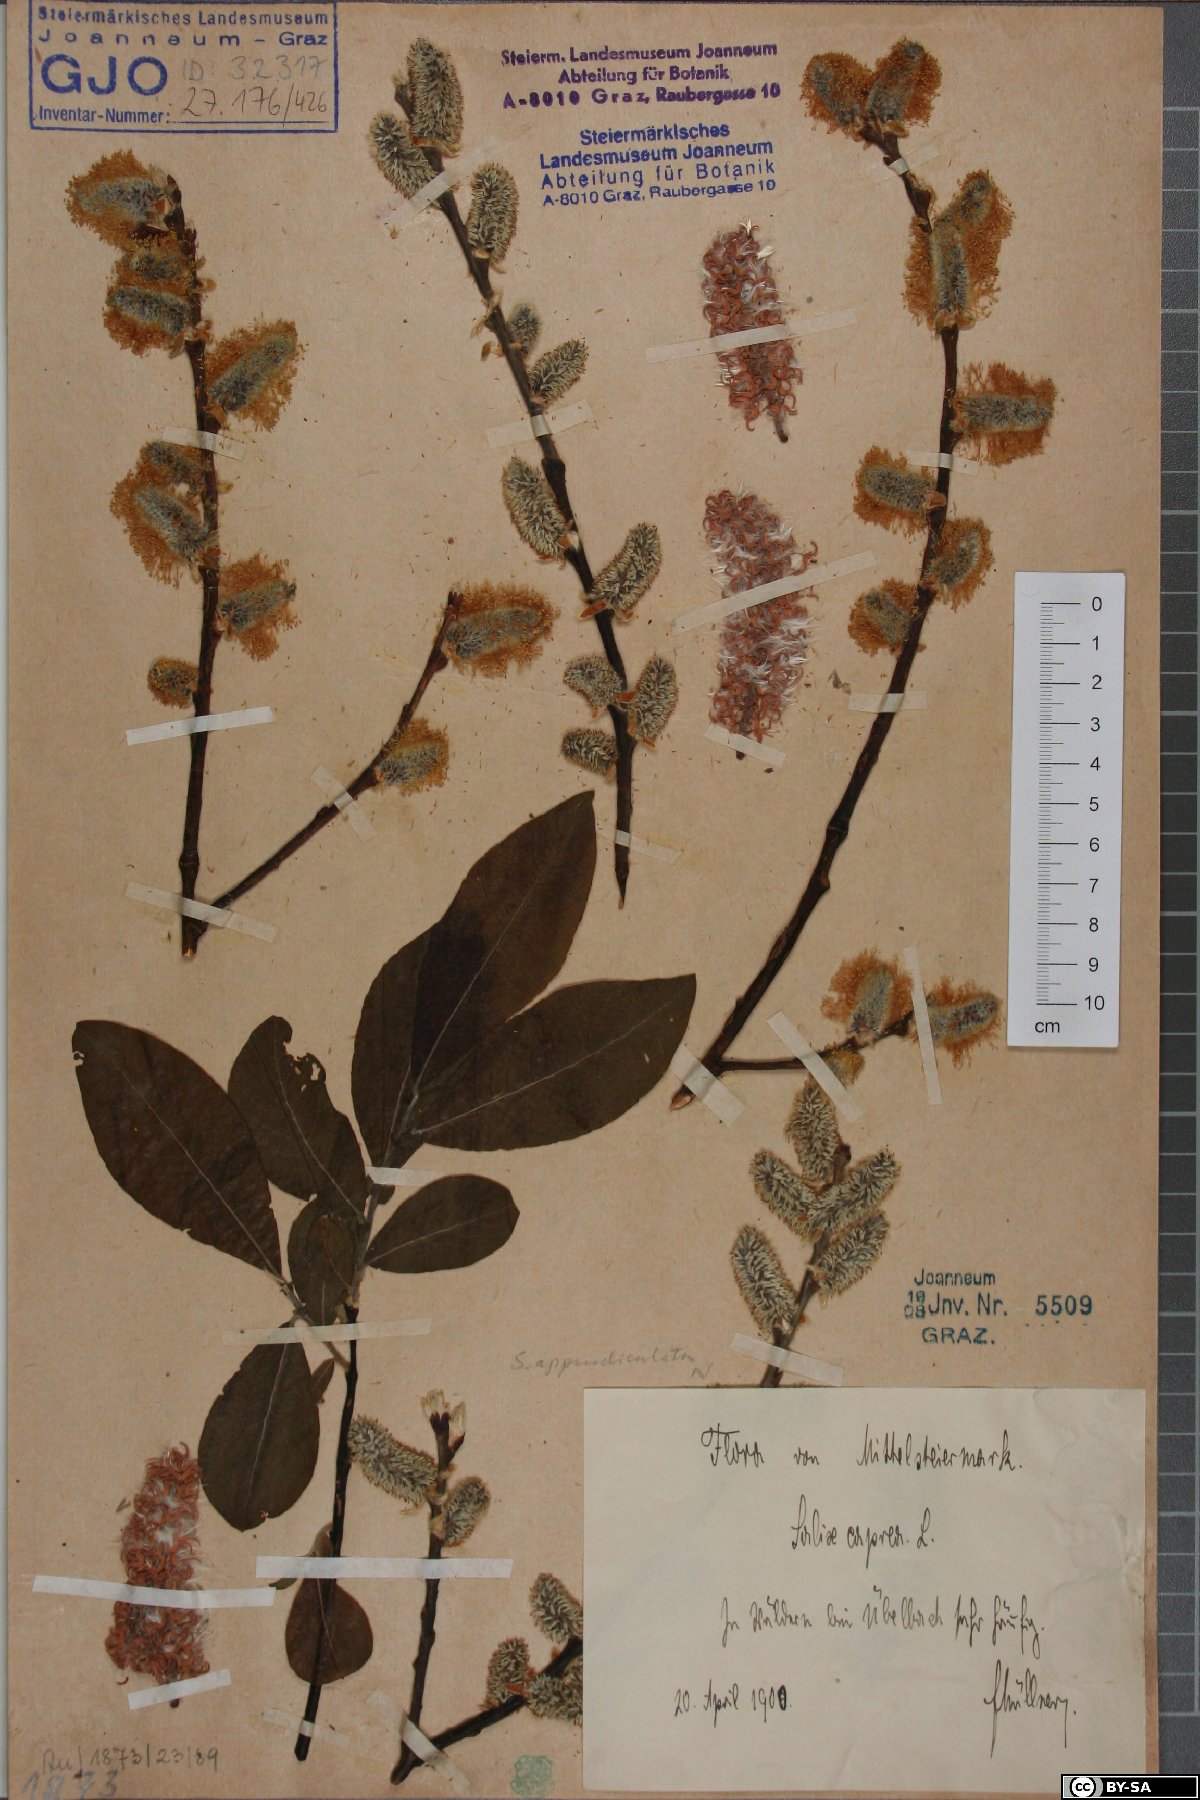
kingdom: Plantae
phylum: Tracheophyta
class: Magnoliopsida
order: Malpighiales
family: Salicaceae
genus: Salix
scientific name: Salix caprea
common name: Goat willow
